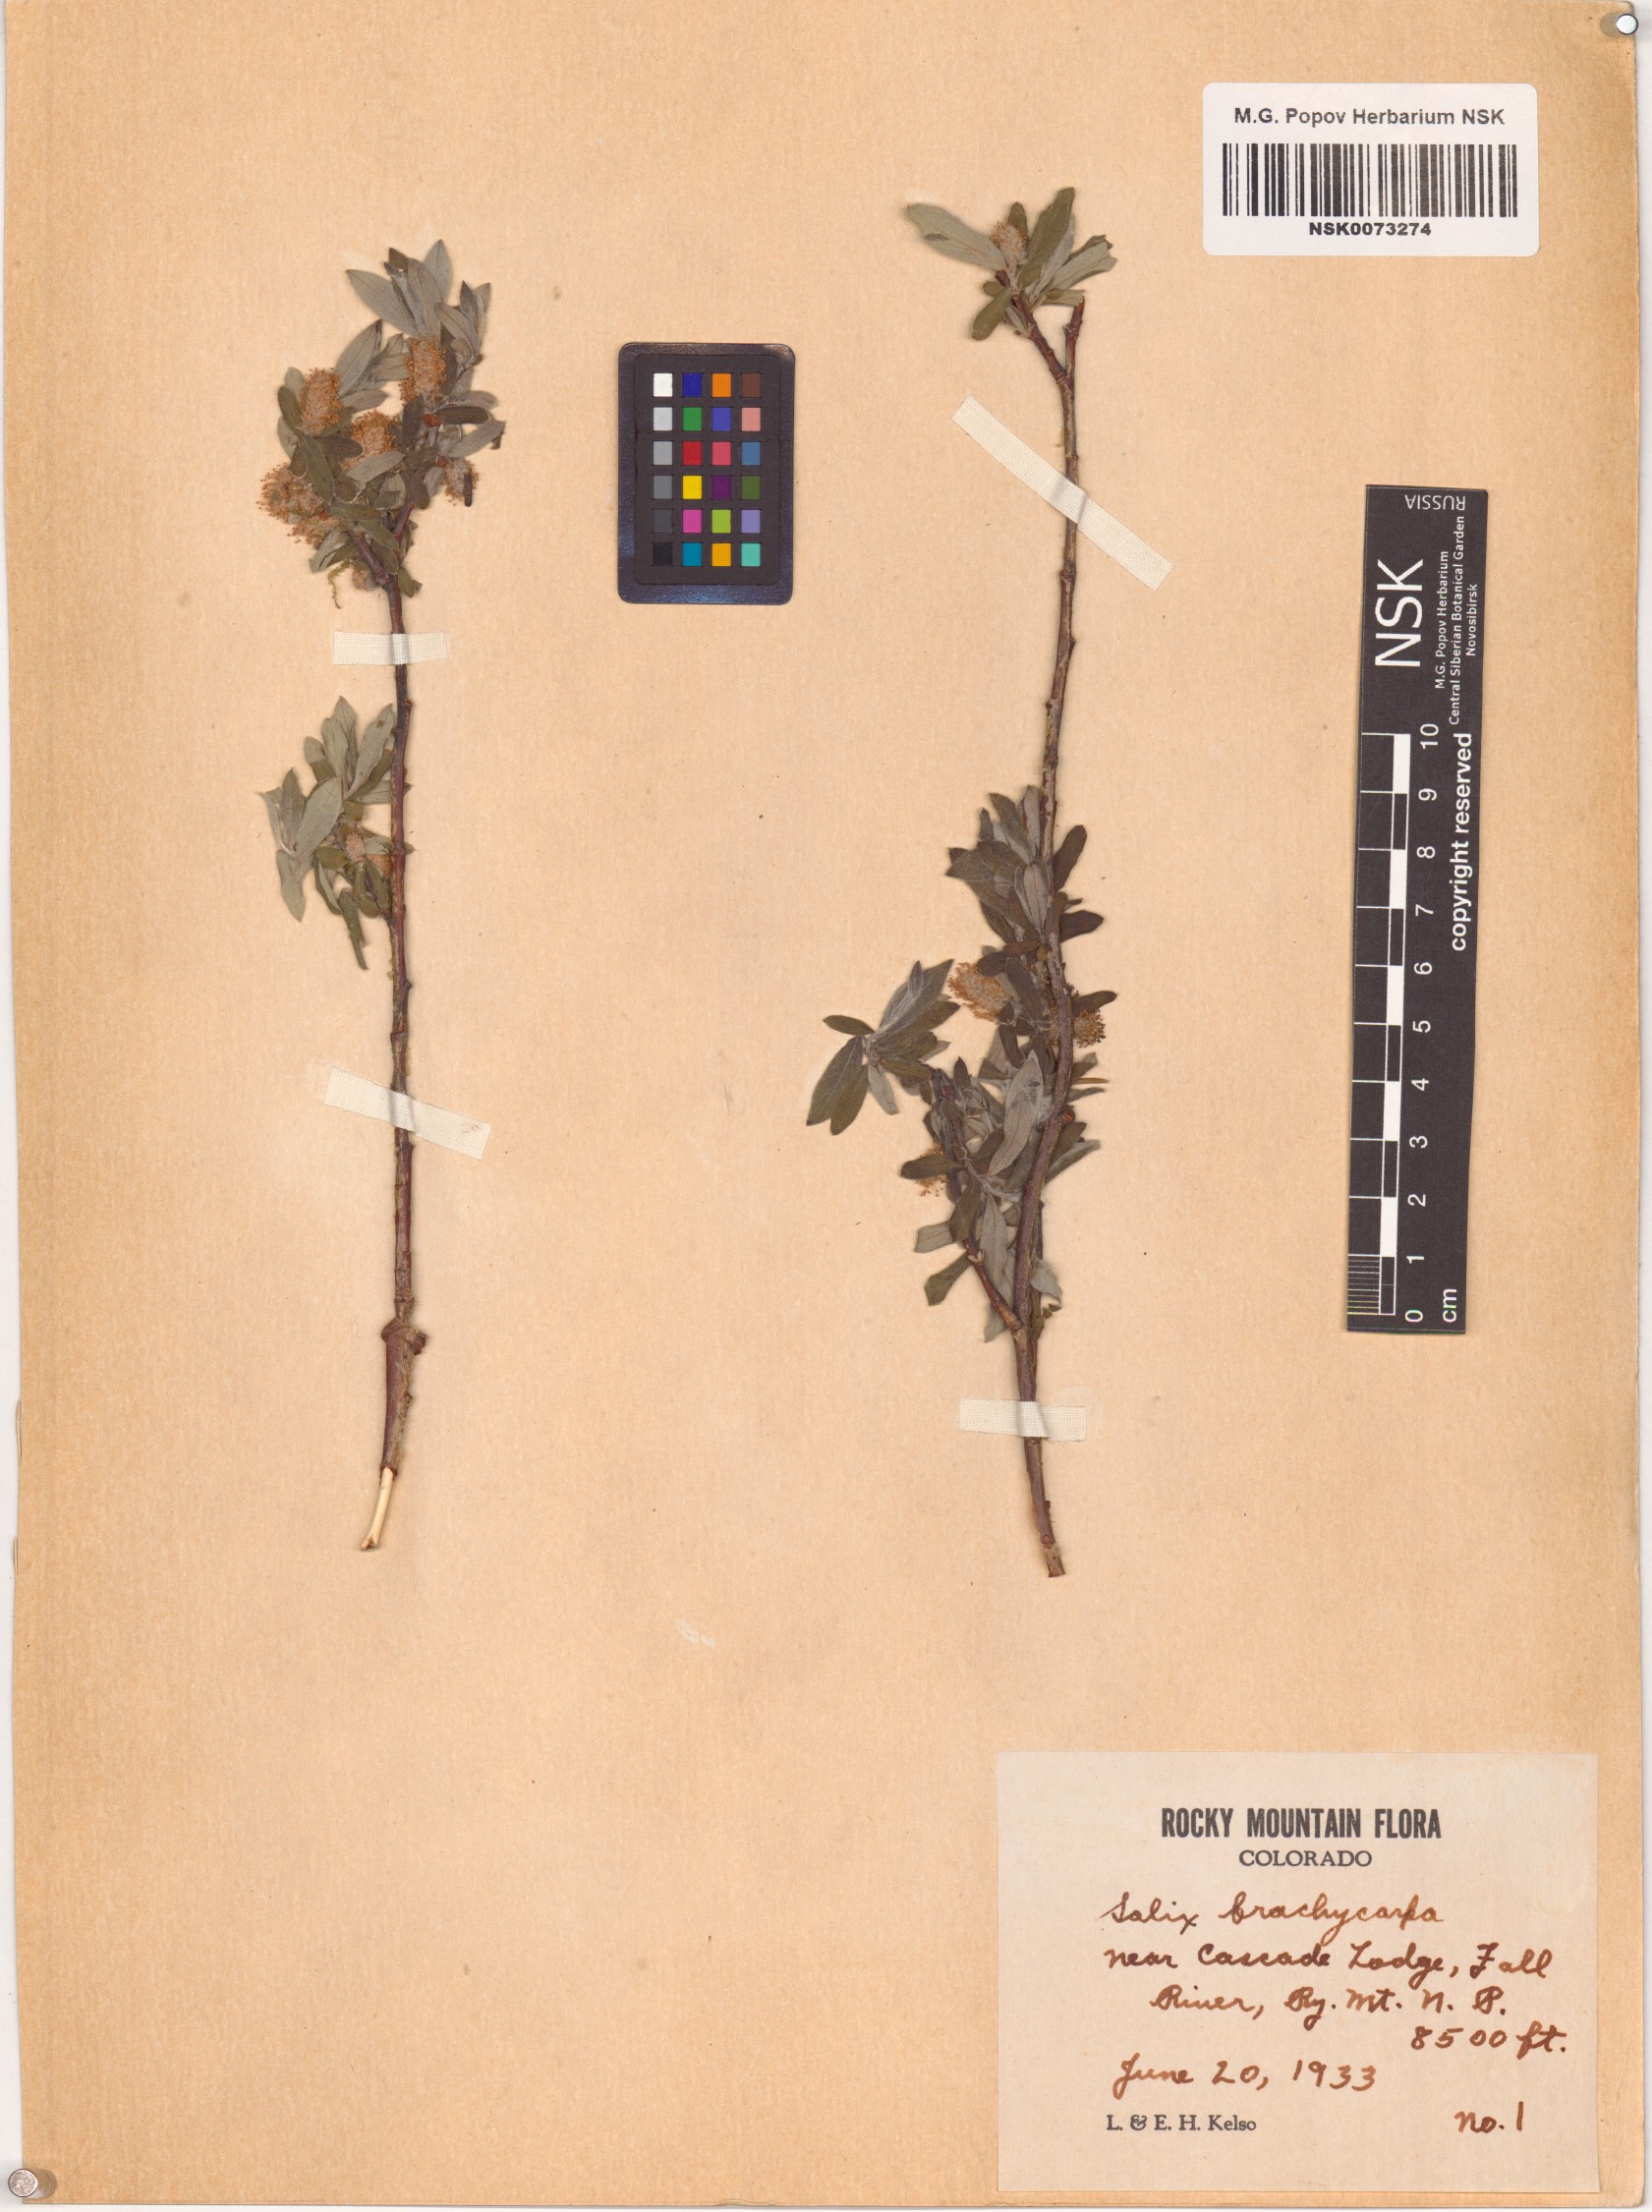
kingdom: Plantae
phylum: Tracheophyta
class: Magnoliopsida
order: Malpighiales
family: Salicaceae
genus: Salix
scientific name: Salix brachycarpa
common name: Barren-ground willow
